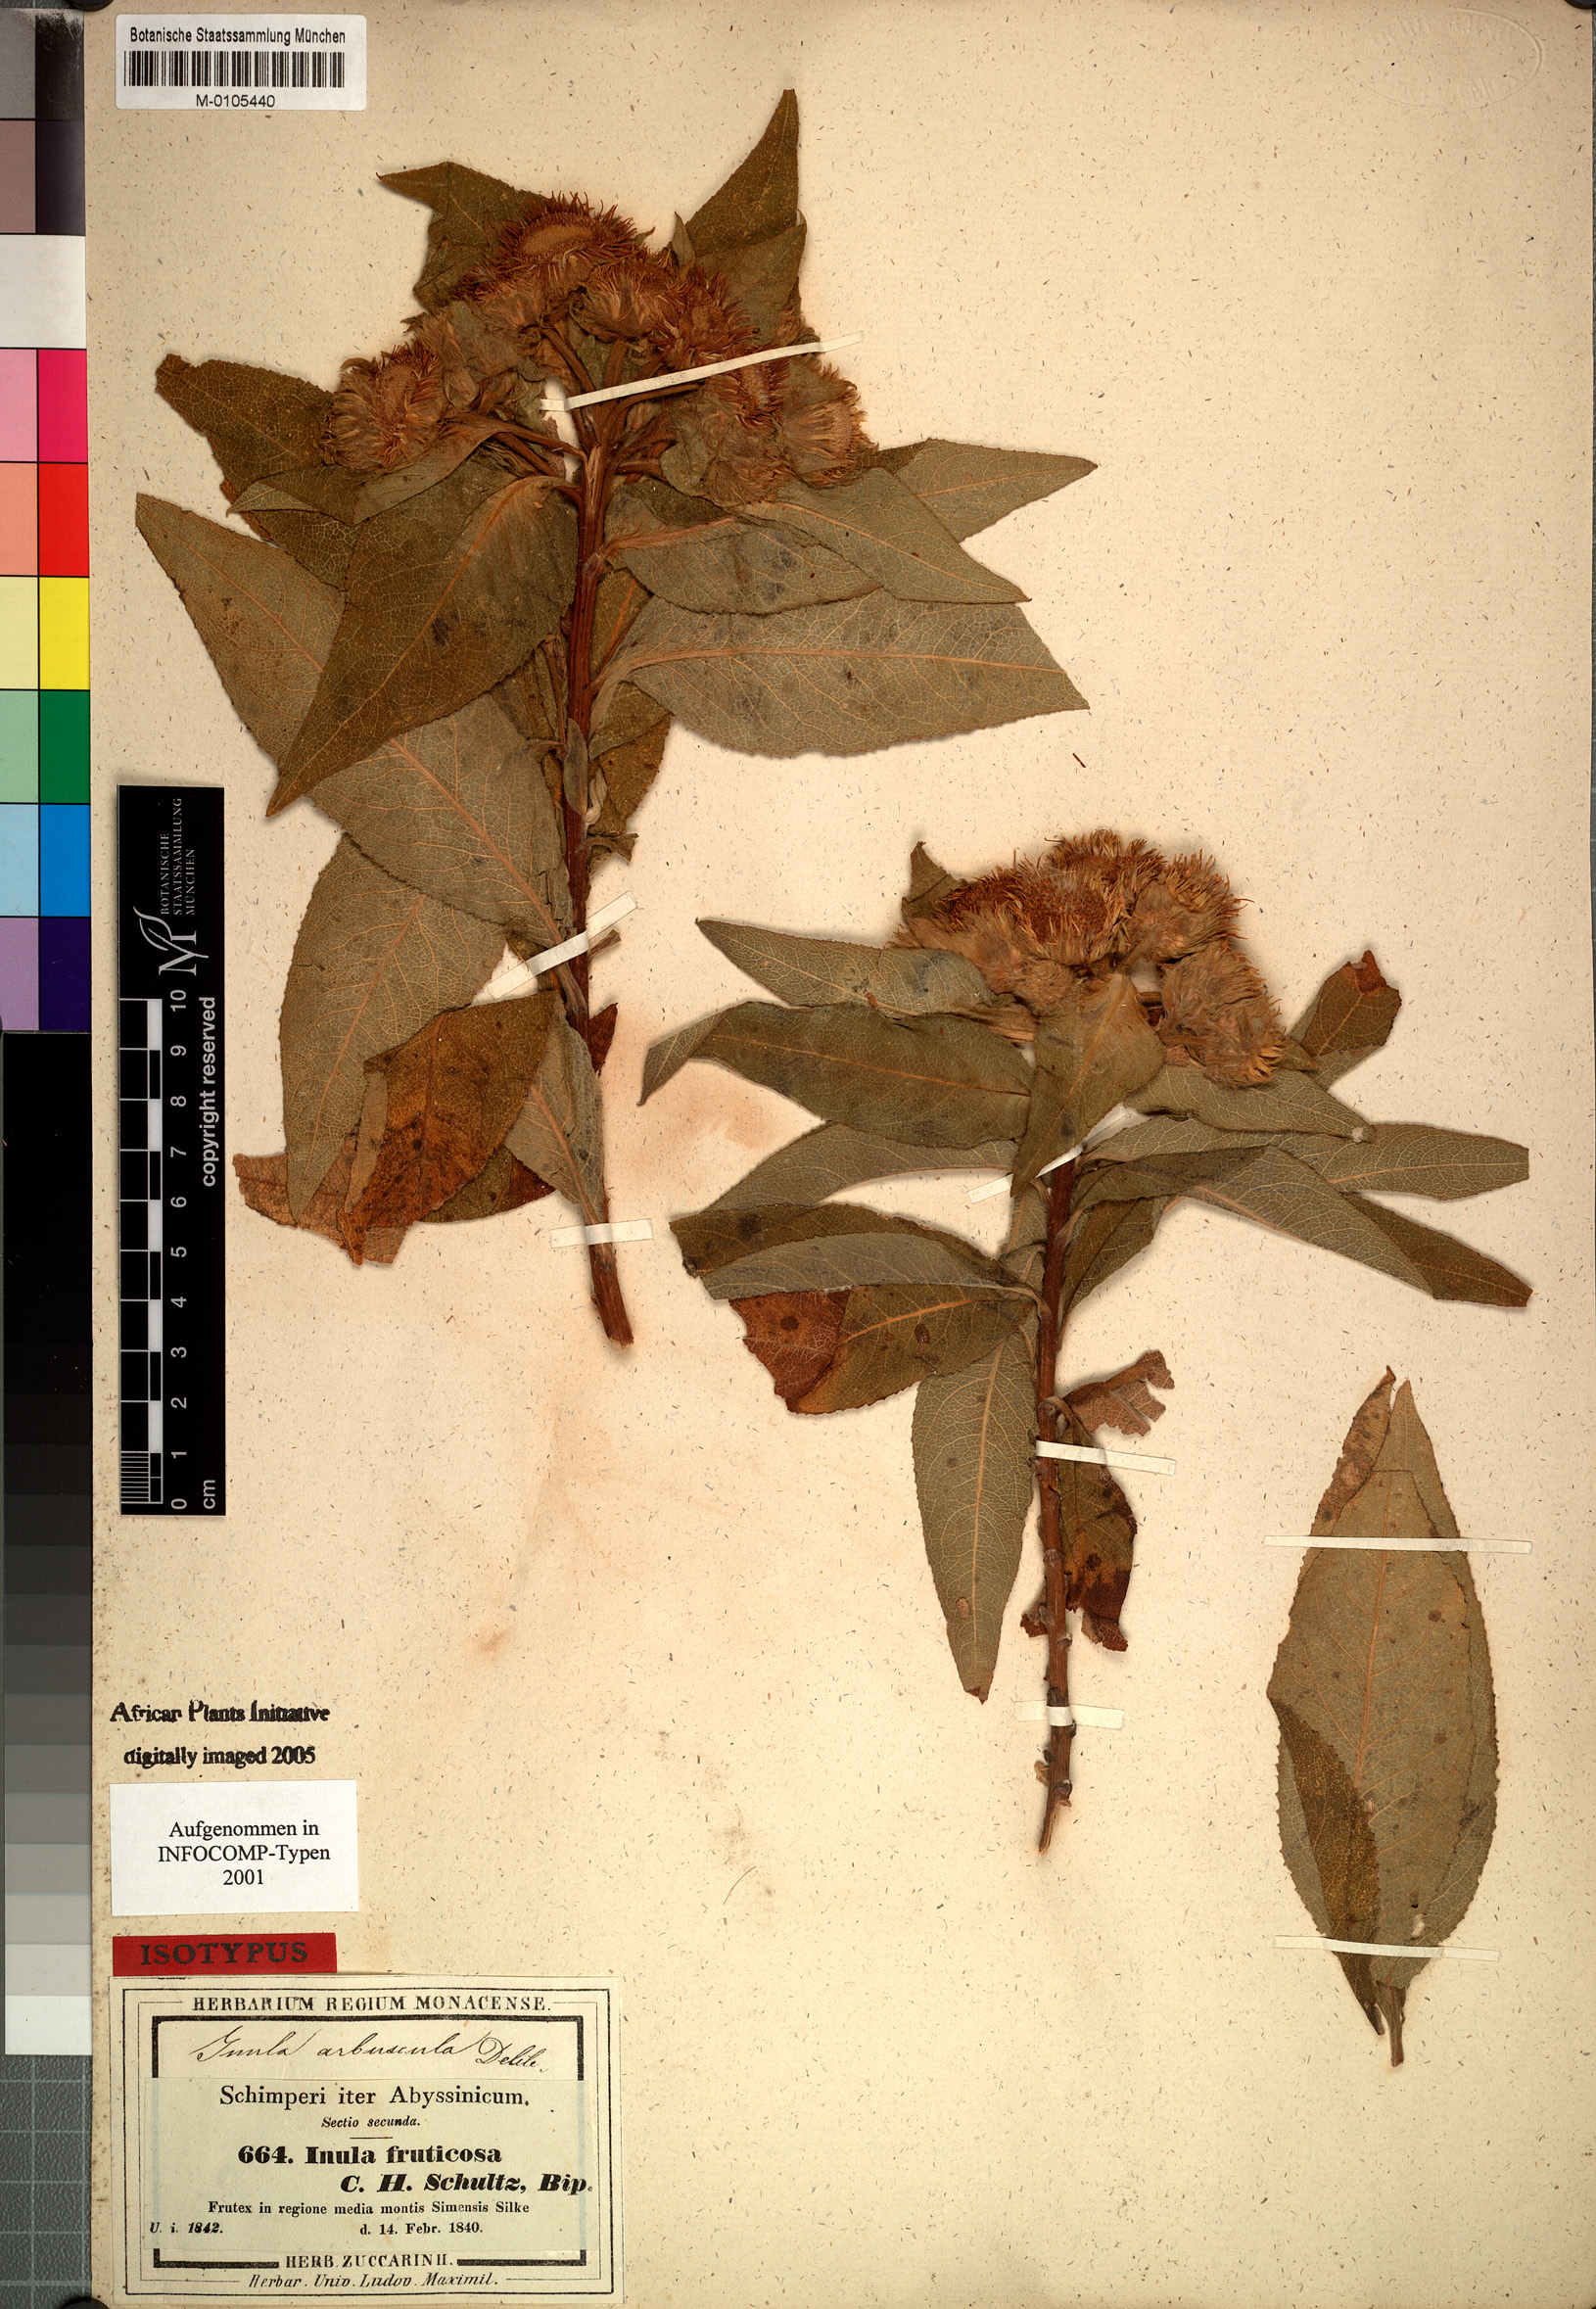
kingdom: Plantae
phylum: Tracheophyta
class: Magnoliopsida
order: Asterales
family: Asteraceae
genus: Inula
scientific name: Inula arbuscula
